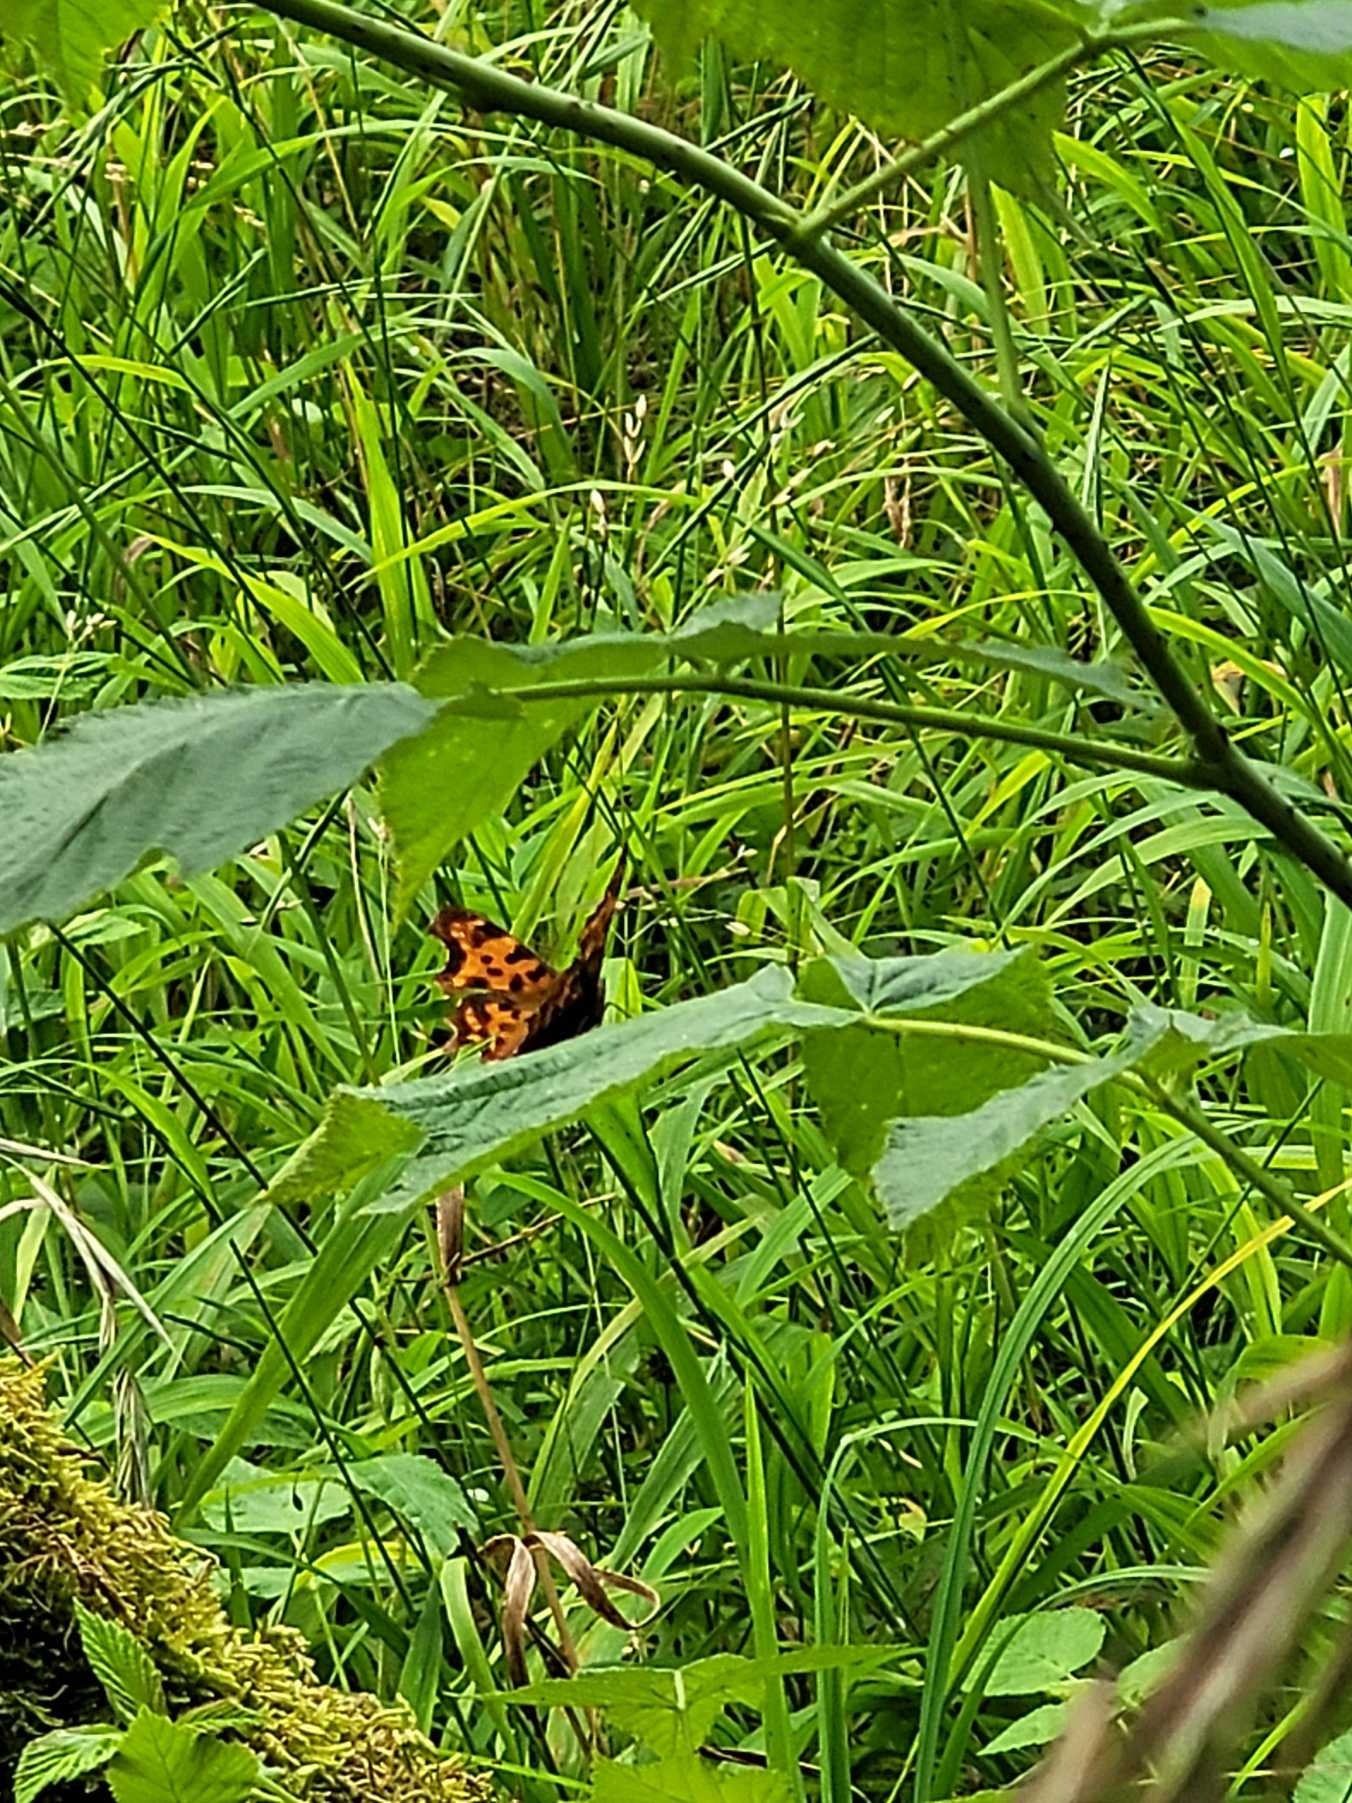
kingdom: Animalia
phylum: Arthropoda
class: Insecta
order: Lepidoptera
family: Nymphalidae
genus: Polygonia
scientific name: Polygonia c-album
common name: Det hvide C
